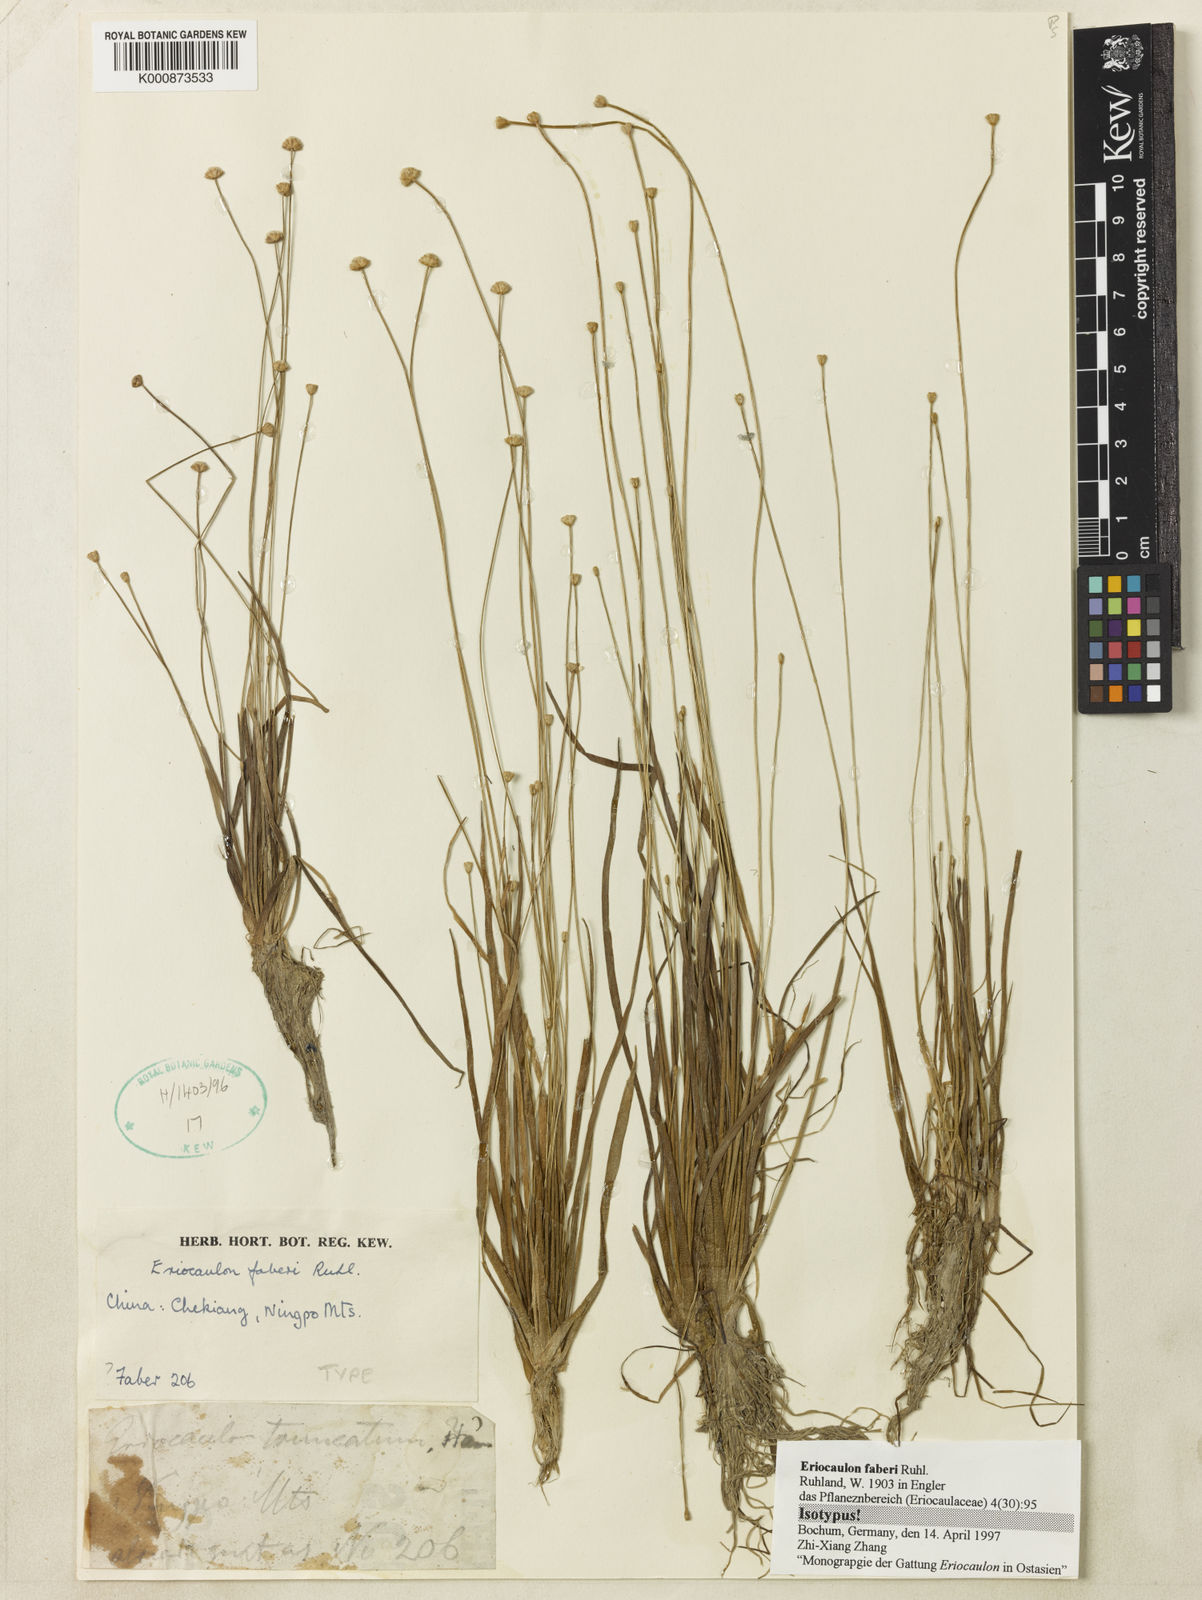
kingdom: Plantae
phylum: Tracheophyta
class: Liliopsida
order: Poales
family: Eriocaulaceae
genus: Eriocaulon
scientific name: Eriocaulon faberi
